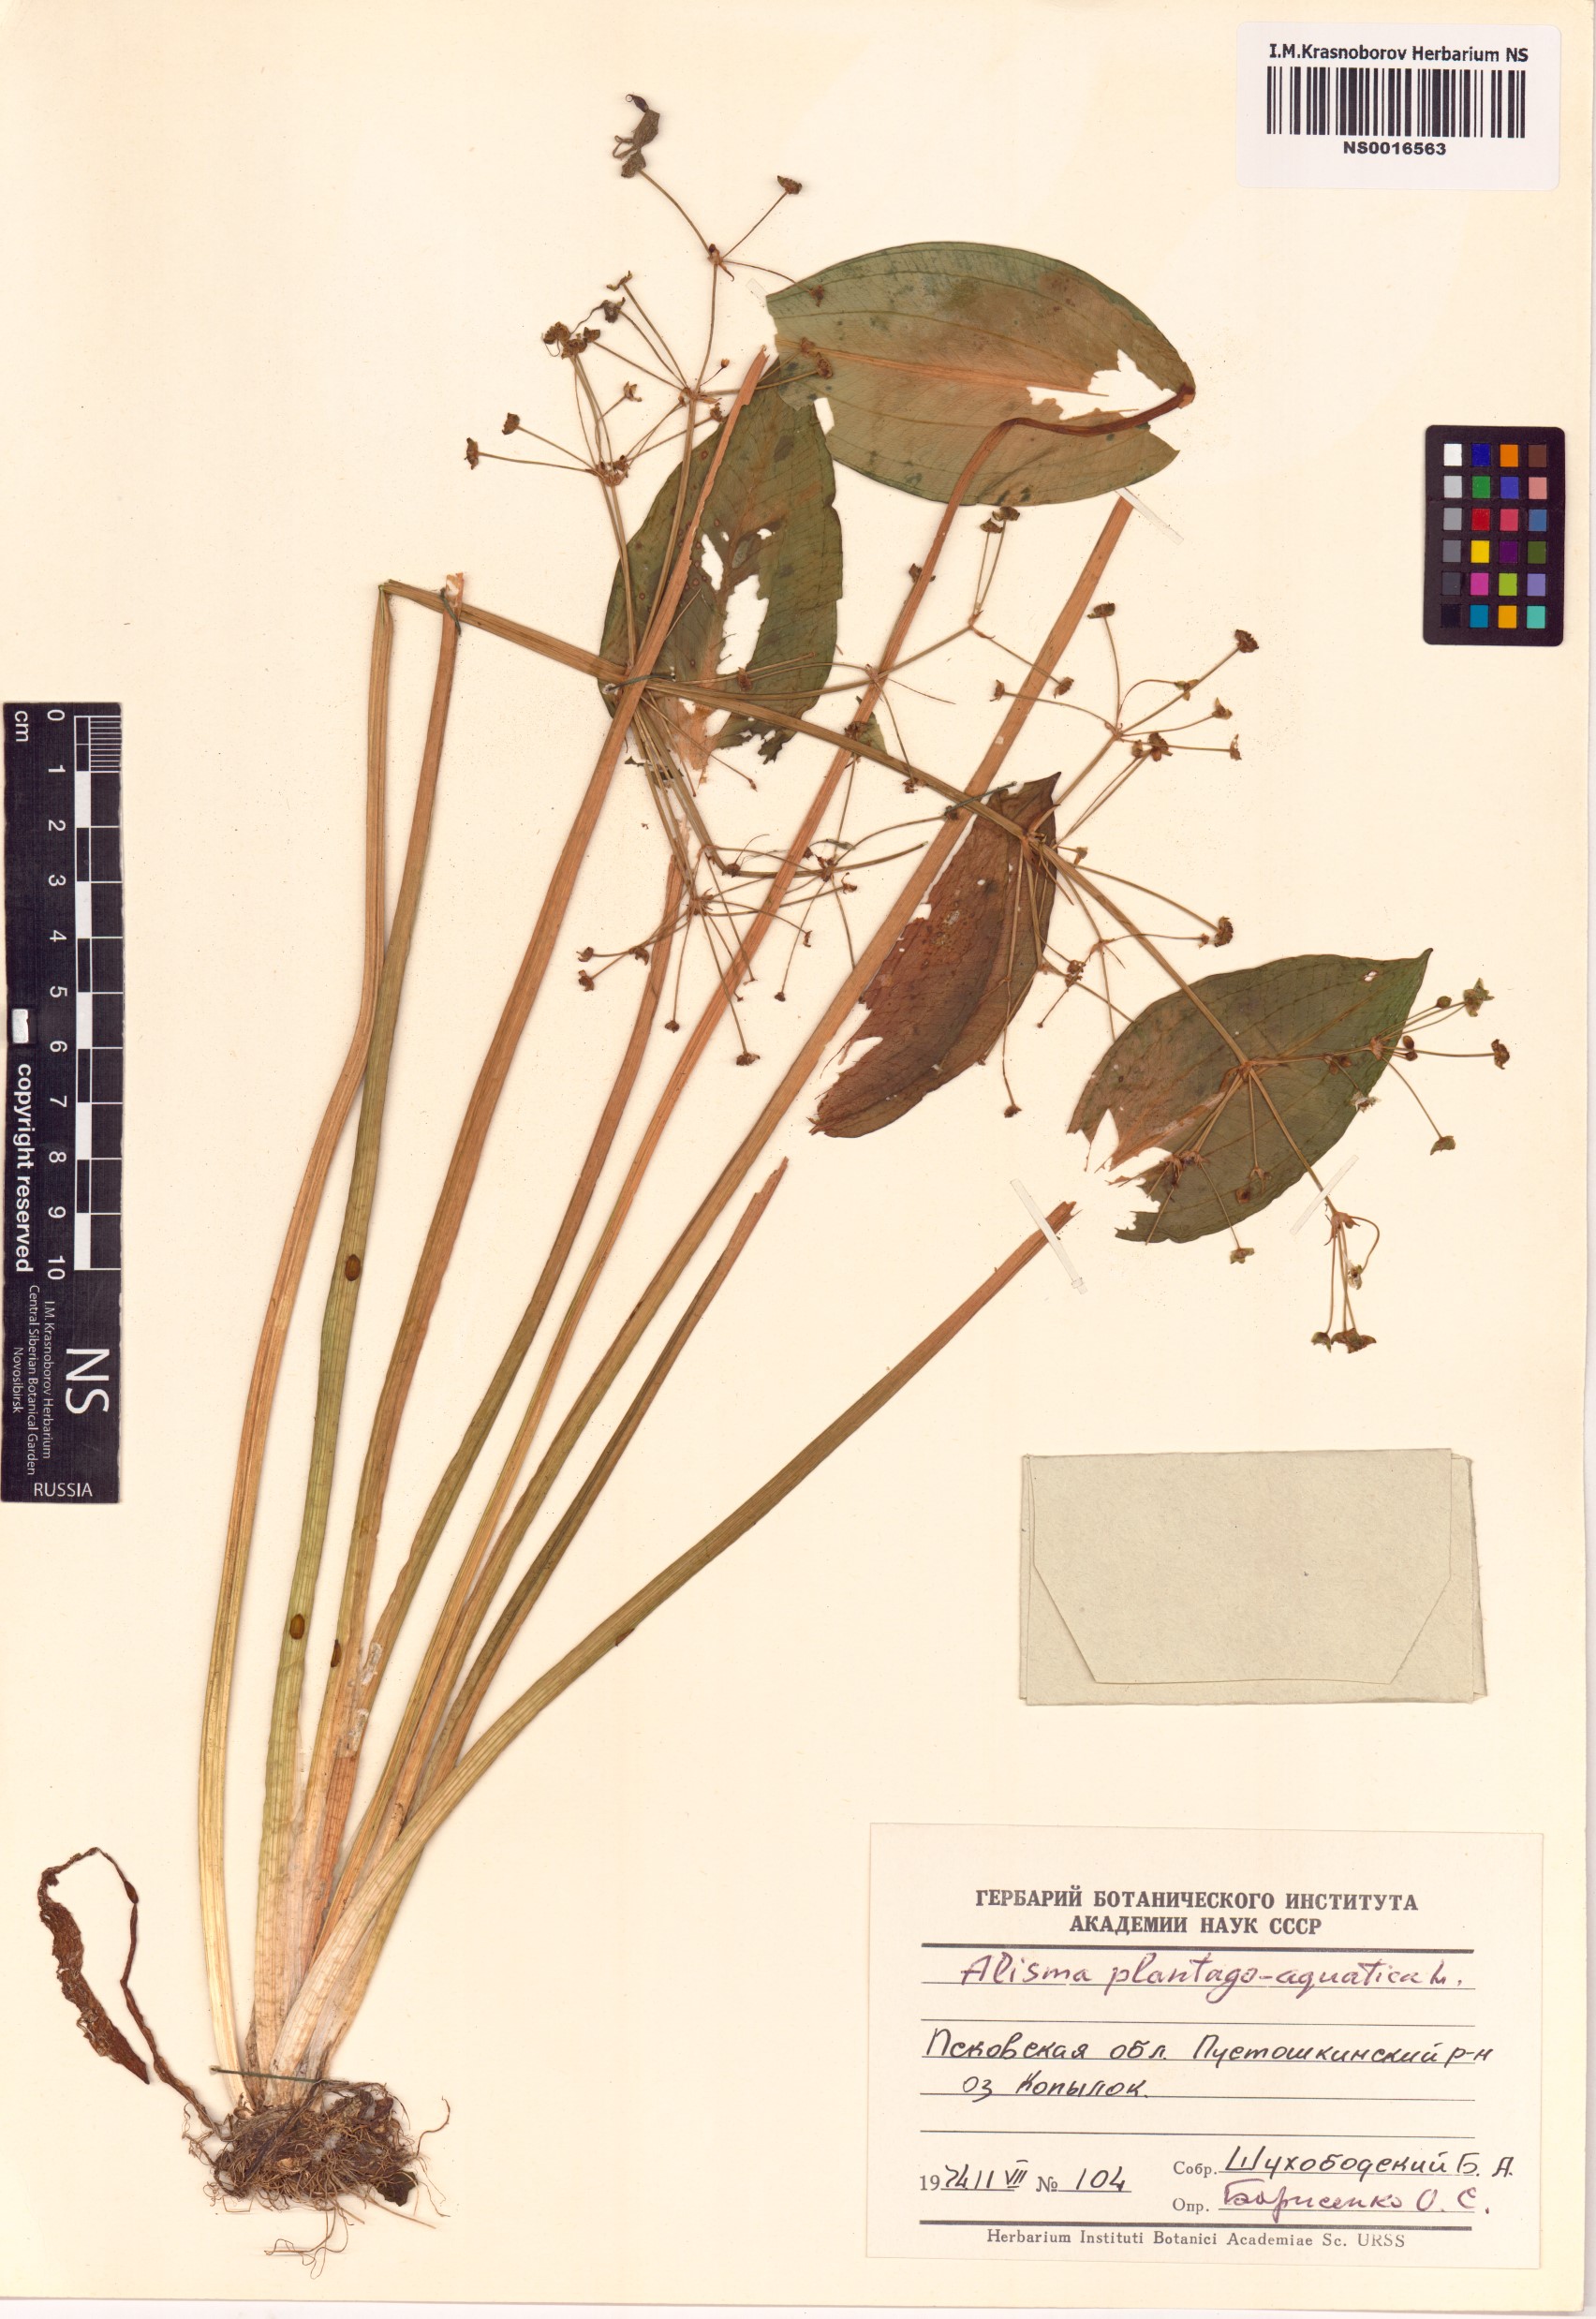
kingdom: Plantae
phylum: Tracheophyta
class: Liliopsida
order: Alismatales
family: Alismataceae
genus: Alisma
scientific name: Alisma plantago-aquatica
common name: Water-plantain
